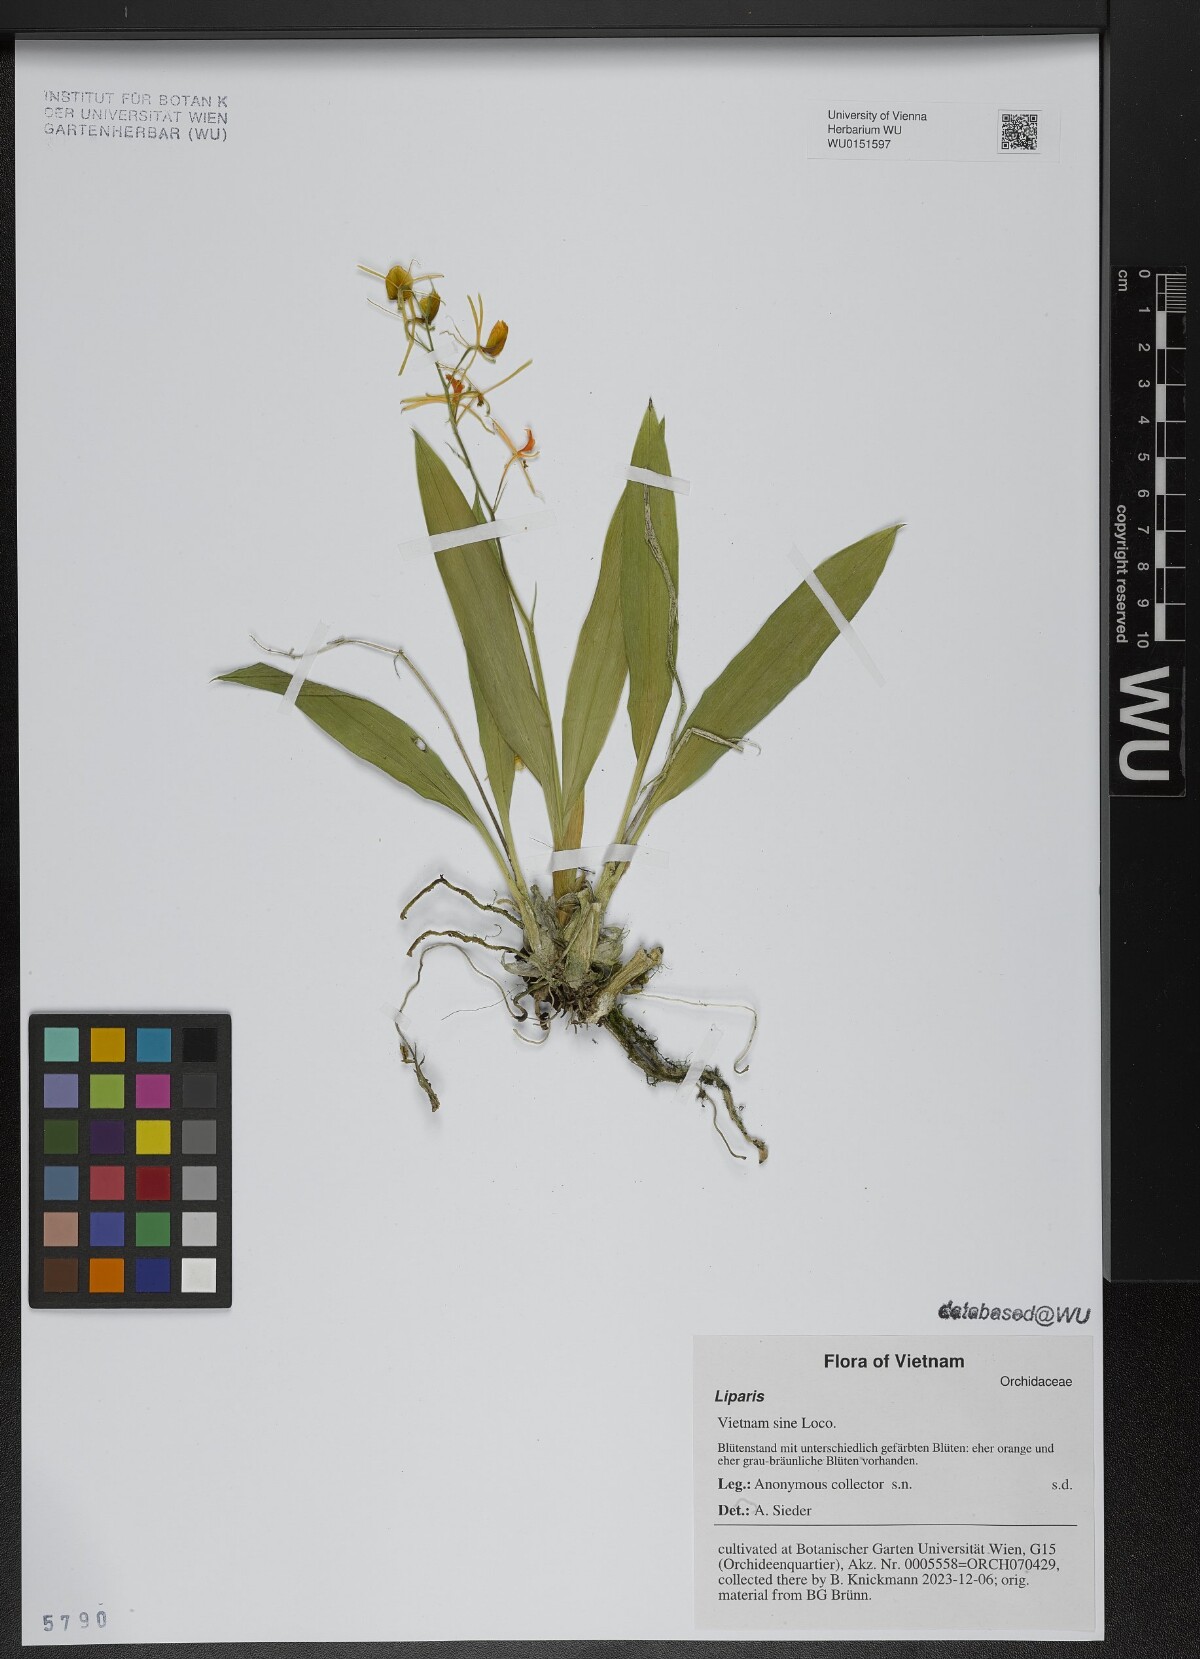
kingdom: Plantae
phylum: Tracheophyta
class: Liliopsida
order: Asparagales
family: Orchidaceae
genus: Liparis
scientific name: Liparis
